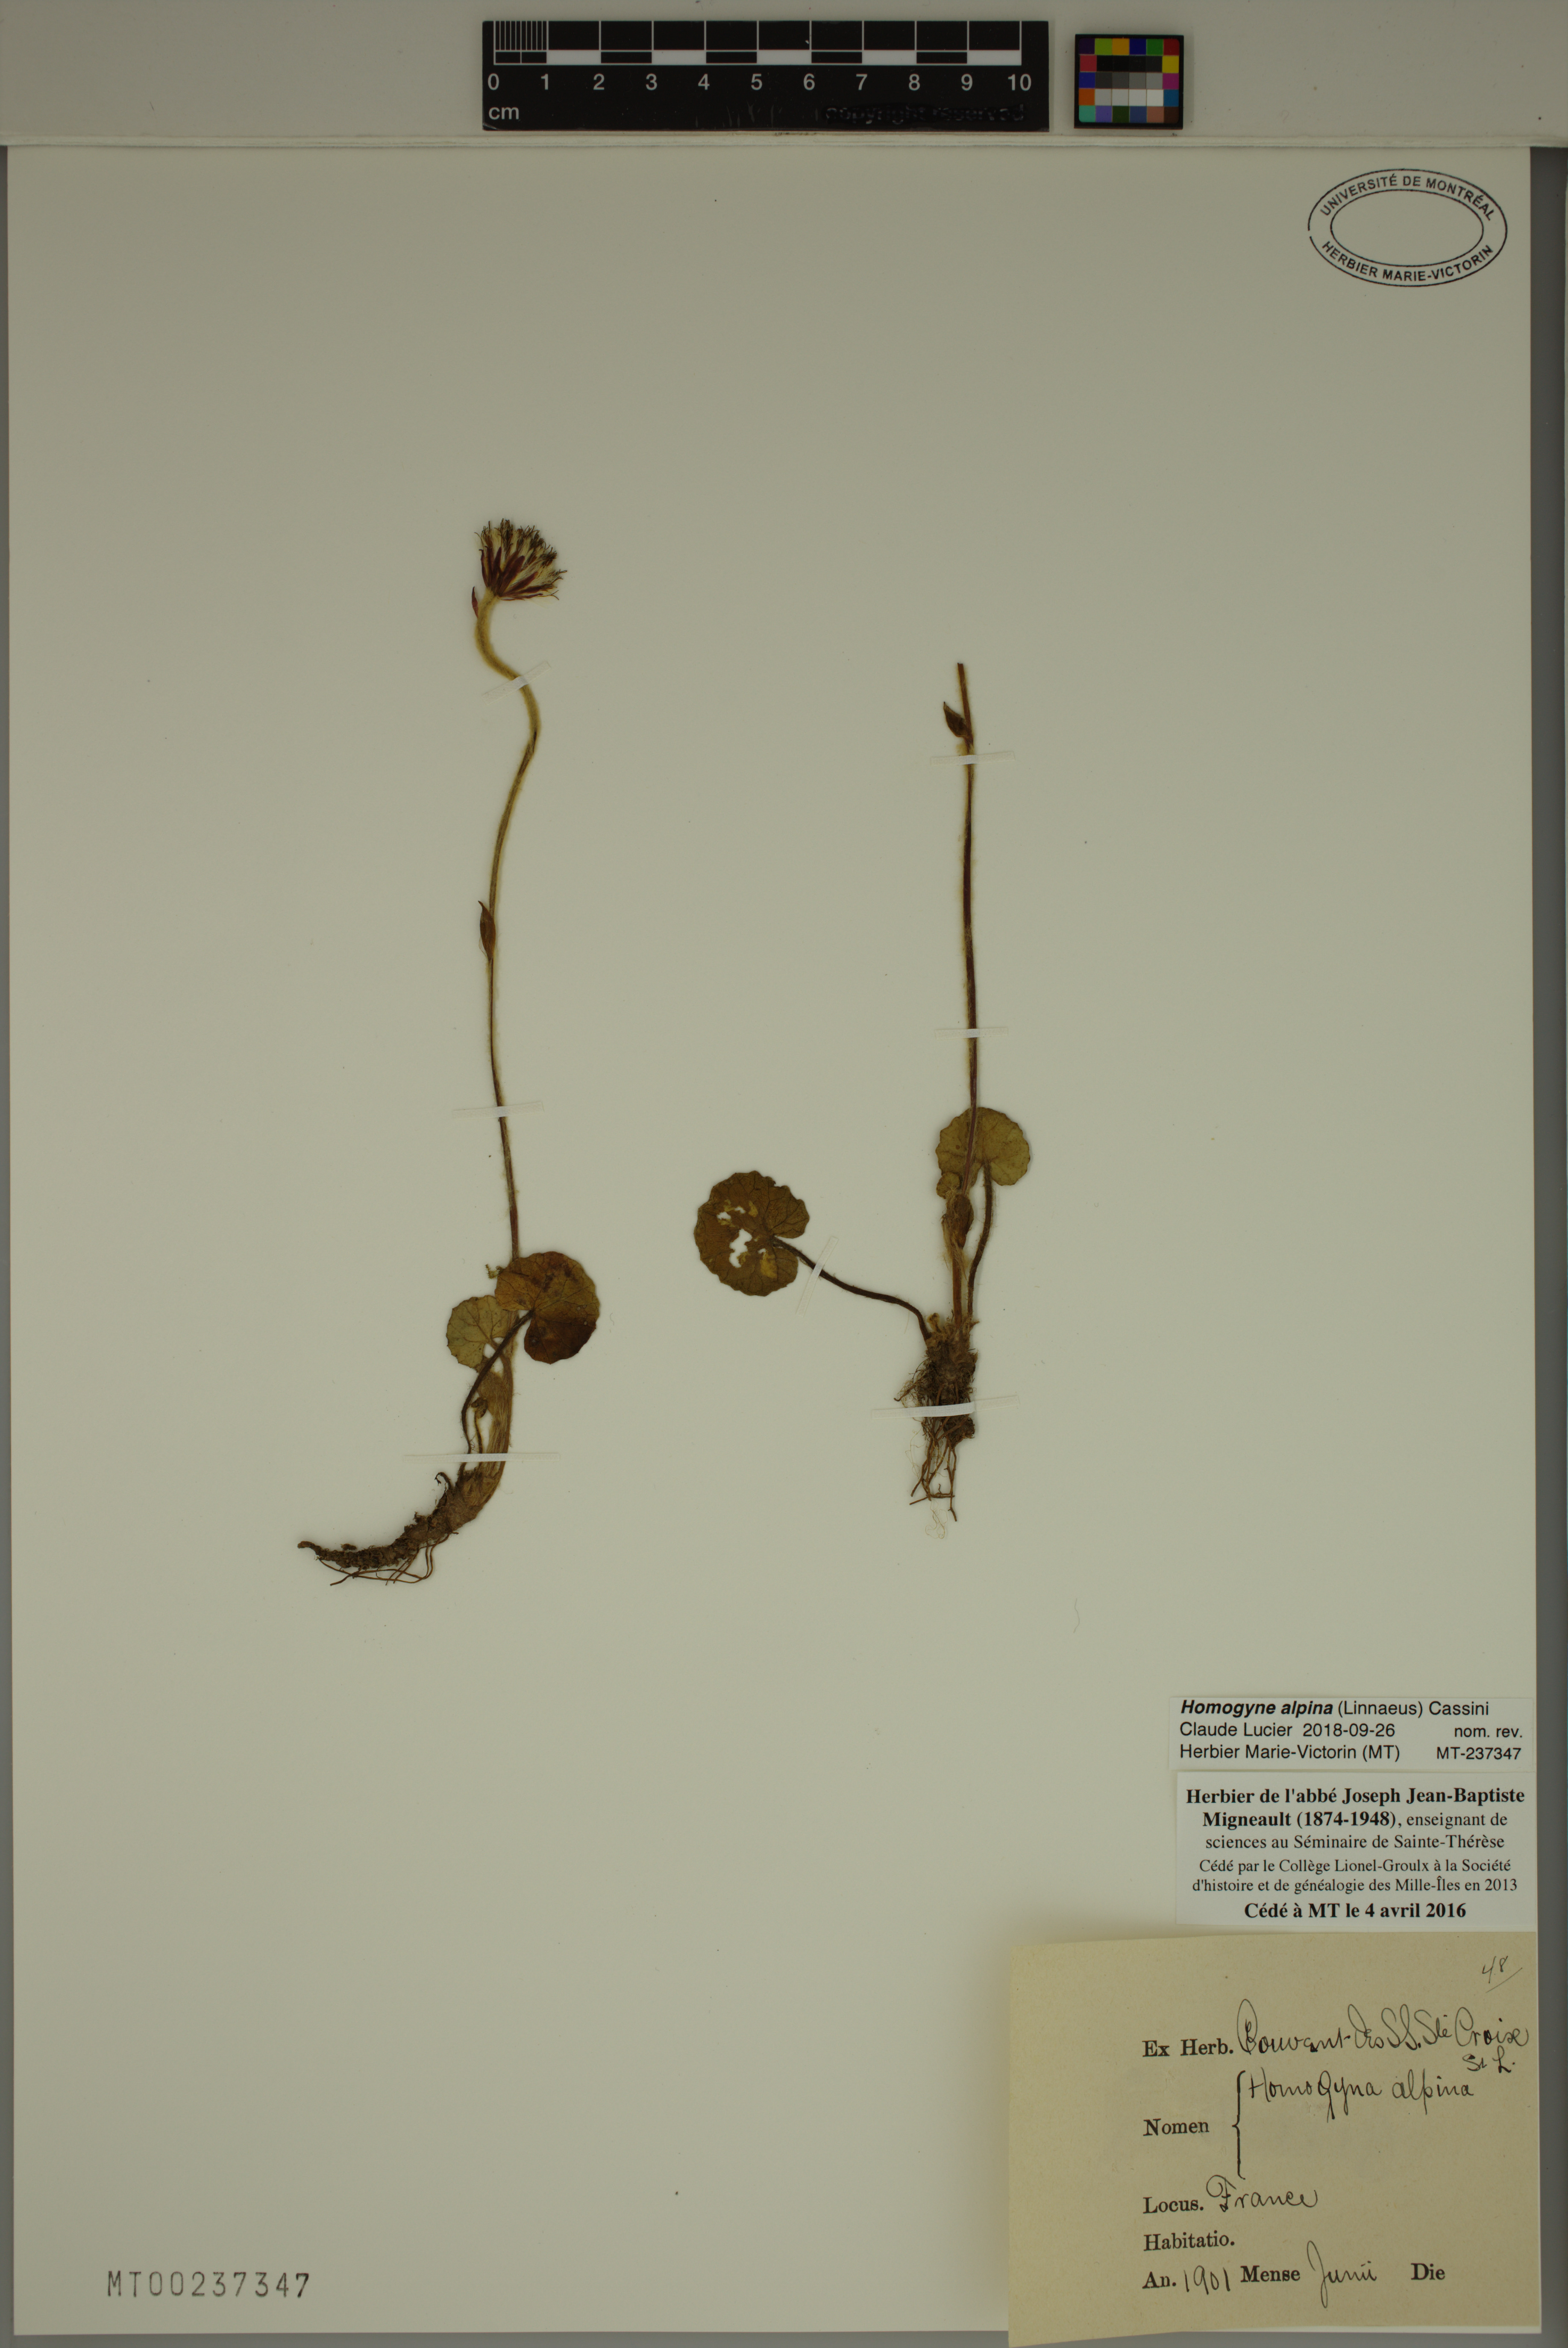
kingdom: Plantae
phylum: Tracheophyta
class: Magnoliopsida
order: Asterales
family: Asteraceae
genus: Homogyne
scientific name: Homogyne alpina
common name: Purple colt's-foot
